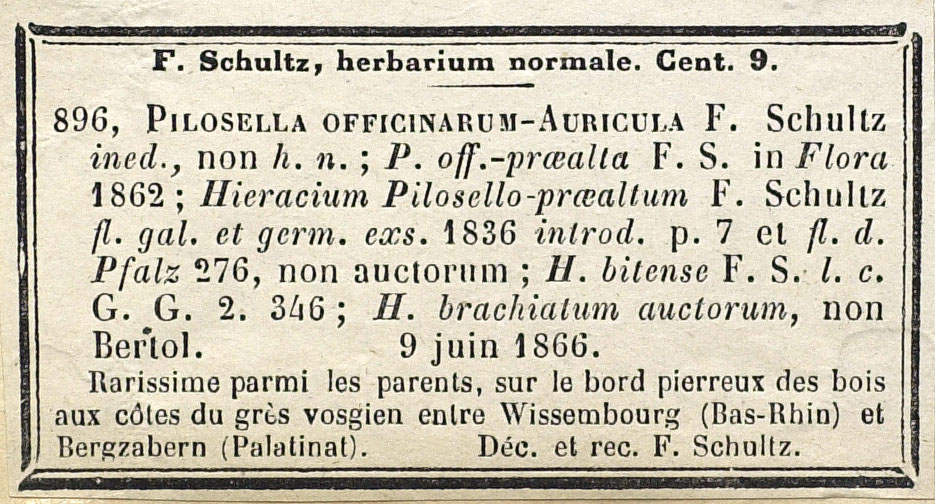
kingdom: Plantae
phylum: Tracheophyta
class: Magnoliopsida
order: Asterales
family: Asteraceae
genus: Pilosella
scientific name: Pilosella fallacina
